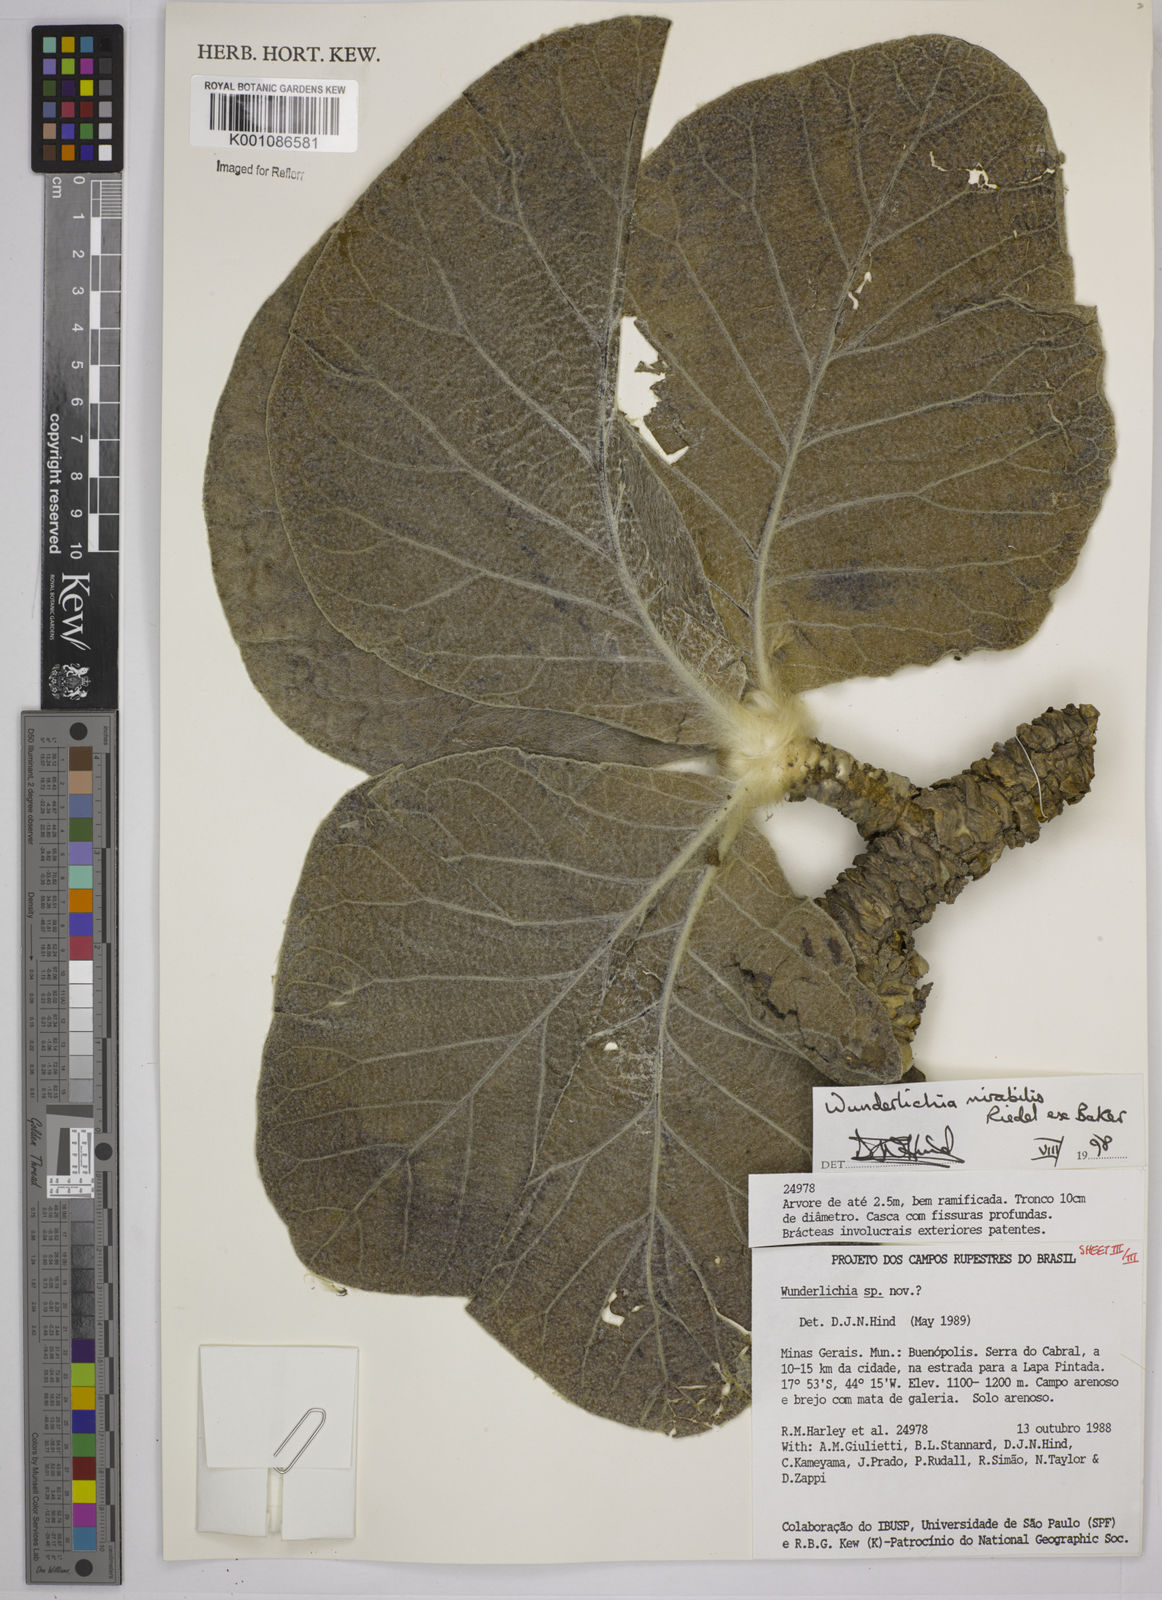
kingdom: Plantae
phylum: Tracheophyta
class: Magnoliopsida
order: Asterales
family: Asteraceae
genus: Wunderlichia
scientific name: Wunderlichia mirabilis
